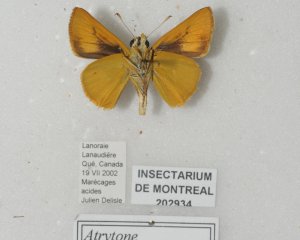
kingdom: Animalia
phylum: Arthropoda
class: Insecta
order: Lepidoptera
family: Hesperiidae
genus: Atrytone
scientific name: Atrytone delaware
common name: Delaware Skipper
